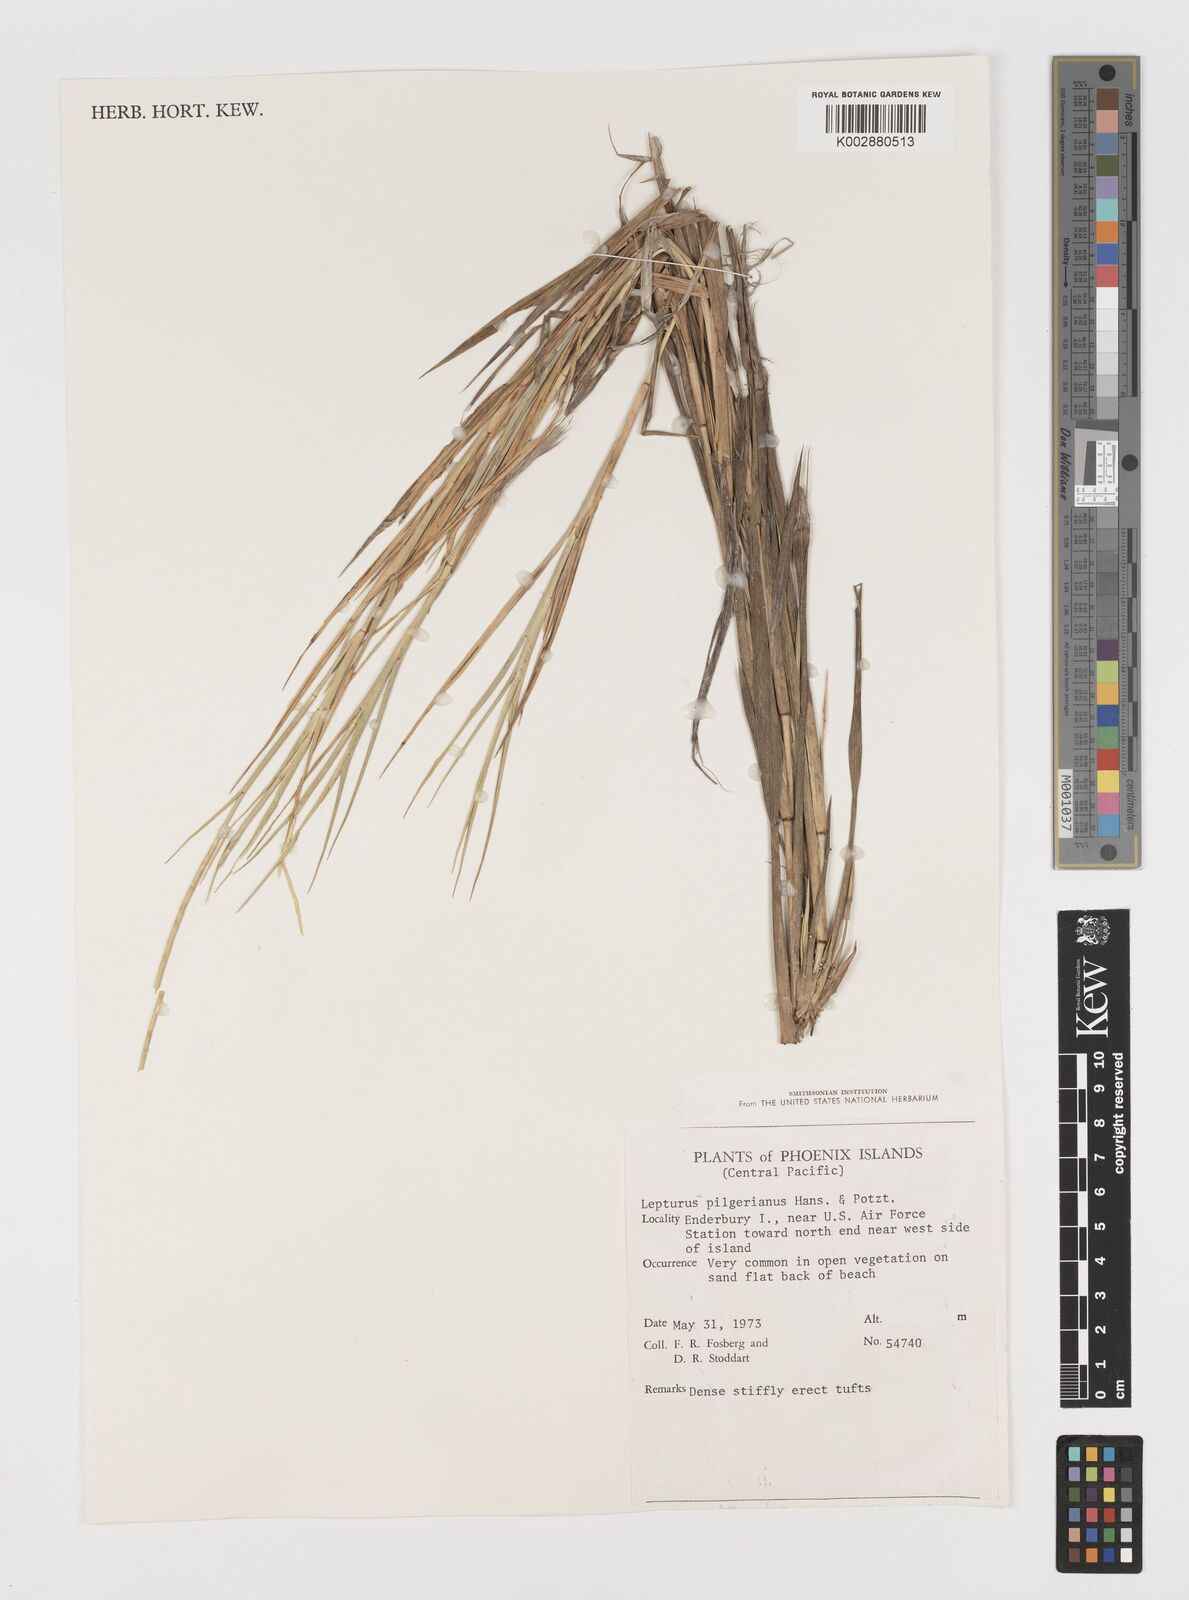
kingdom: Plantae
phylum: Tracheophyta
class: Liliopsida
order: Poales
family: Poaceae
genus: Lepturus
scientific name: Lepturus repens
